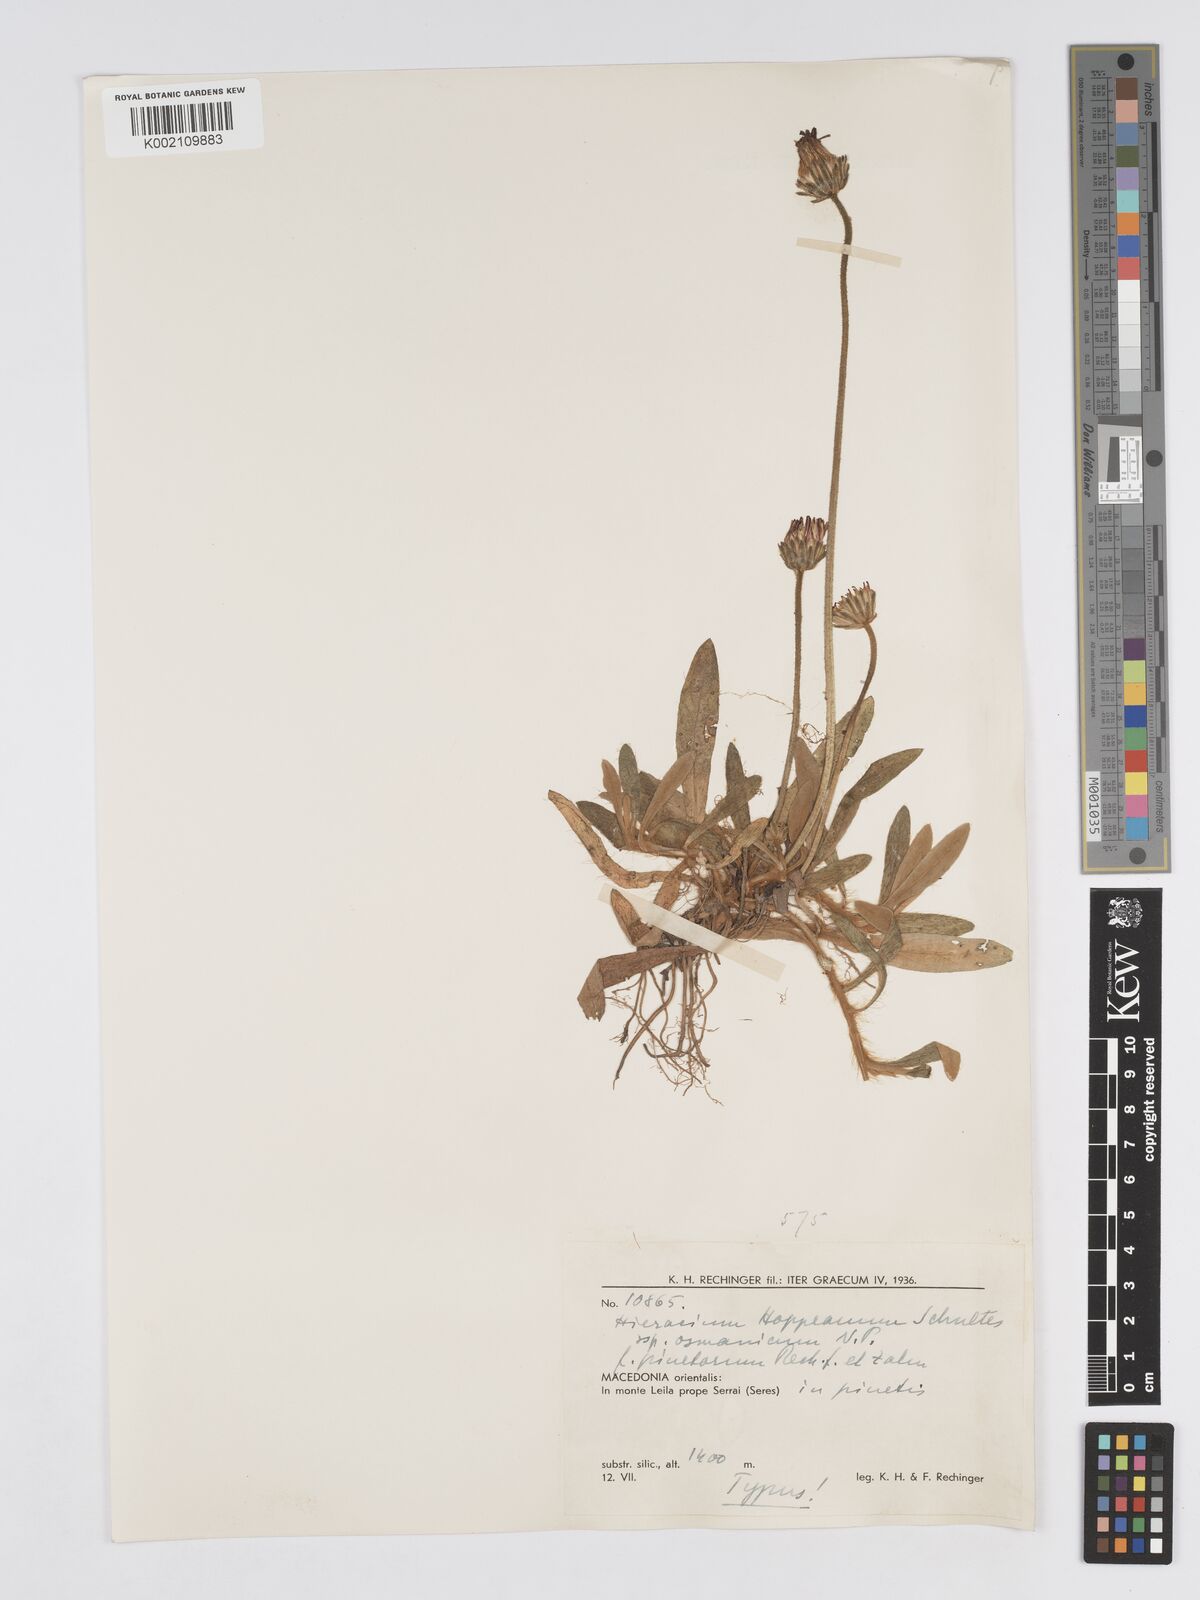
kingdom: Plantae
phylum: Tracheophyta
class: Magnoliopsida
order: Asterales
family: Asteraceae
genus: Pilosella
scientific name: Pilosella hoppeana
